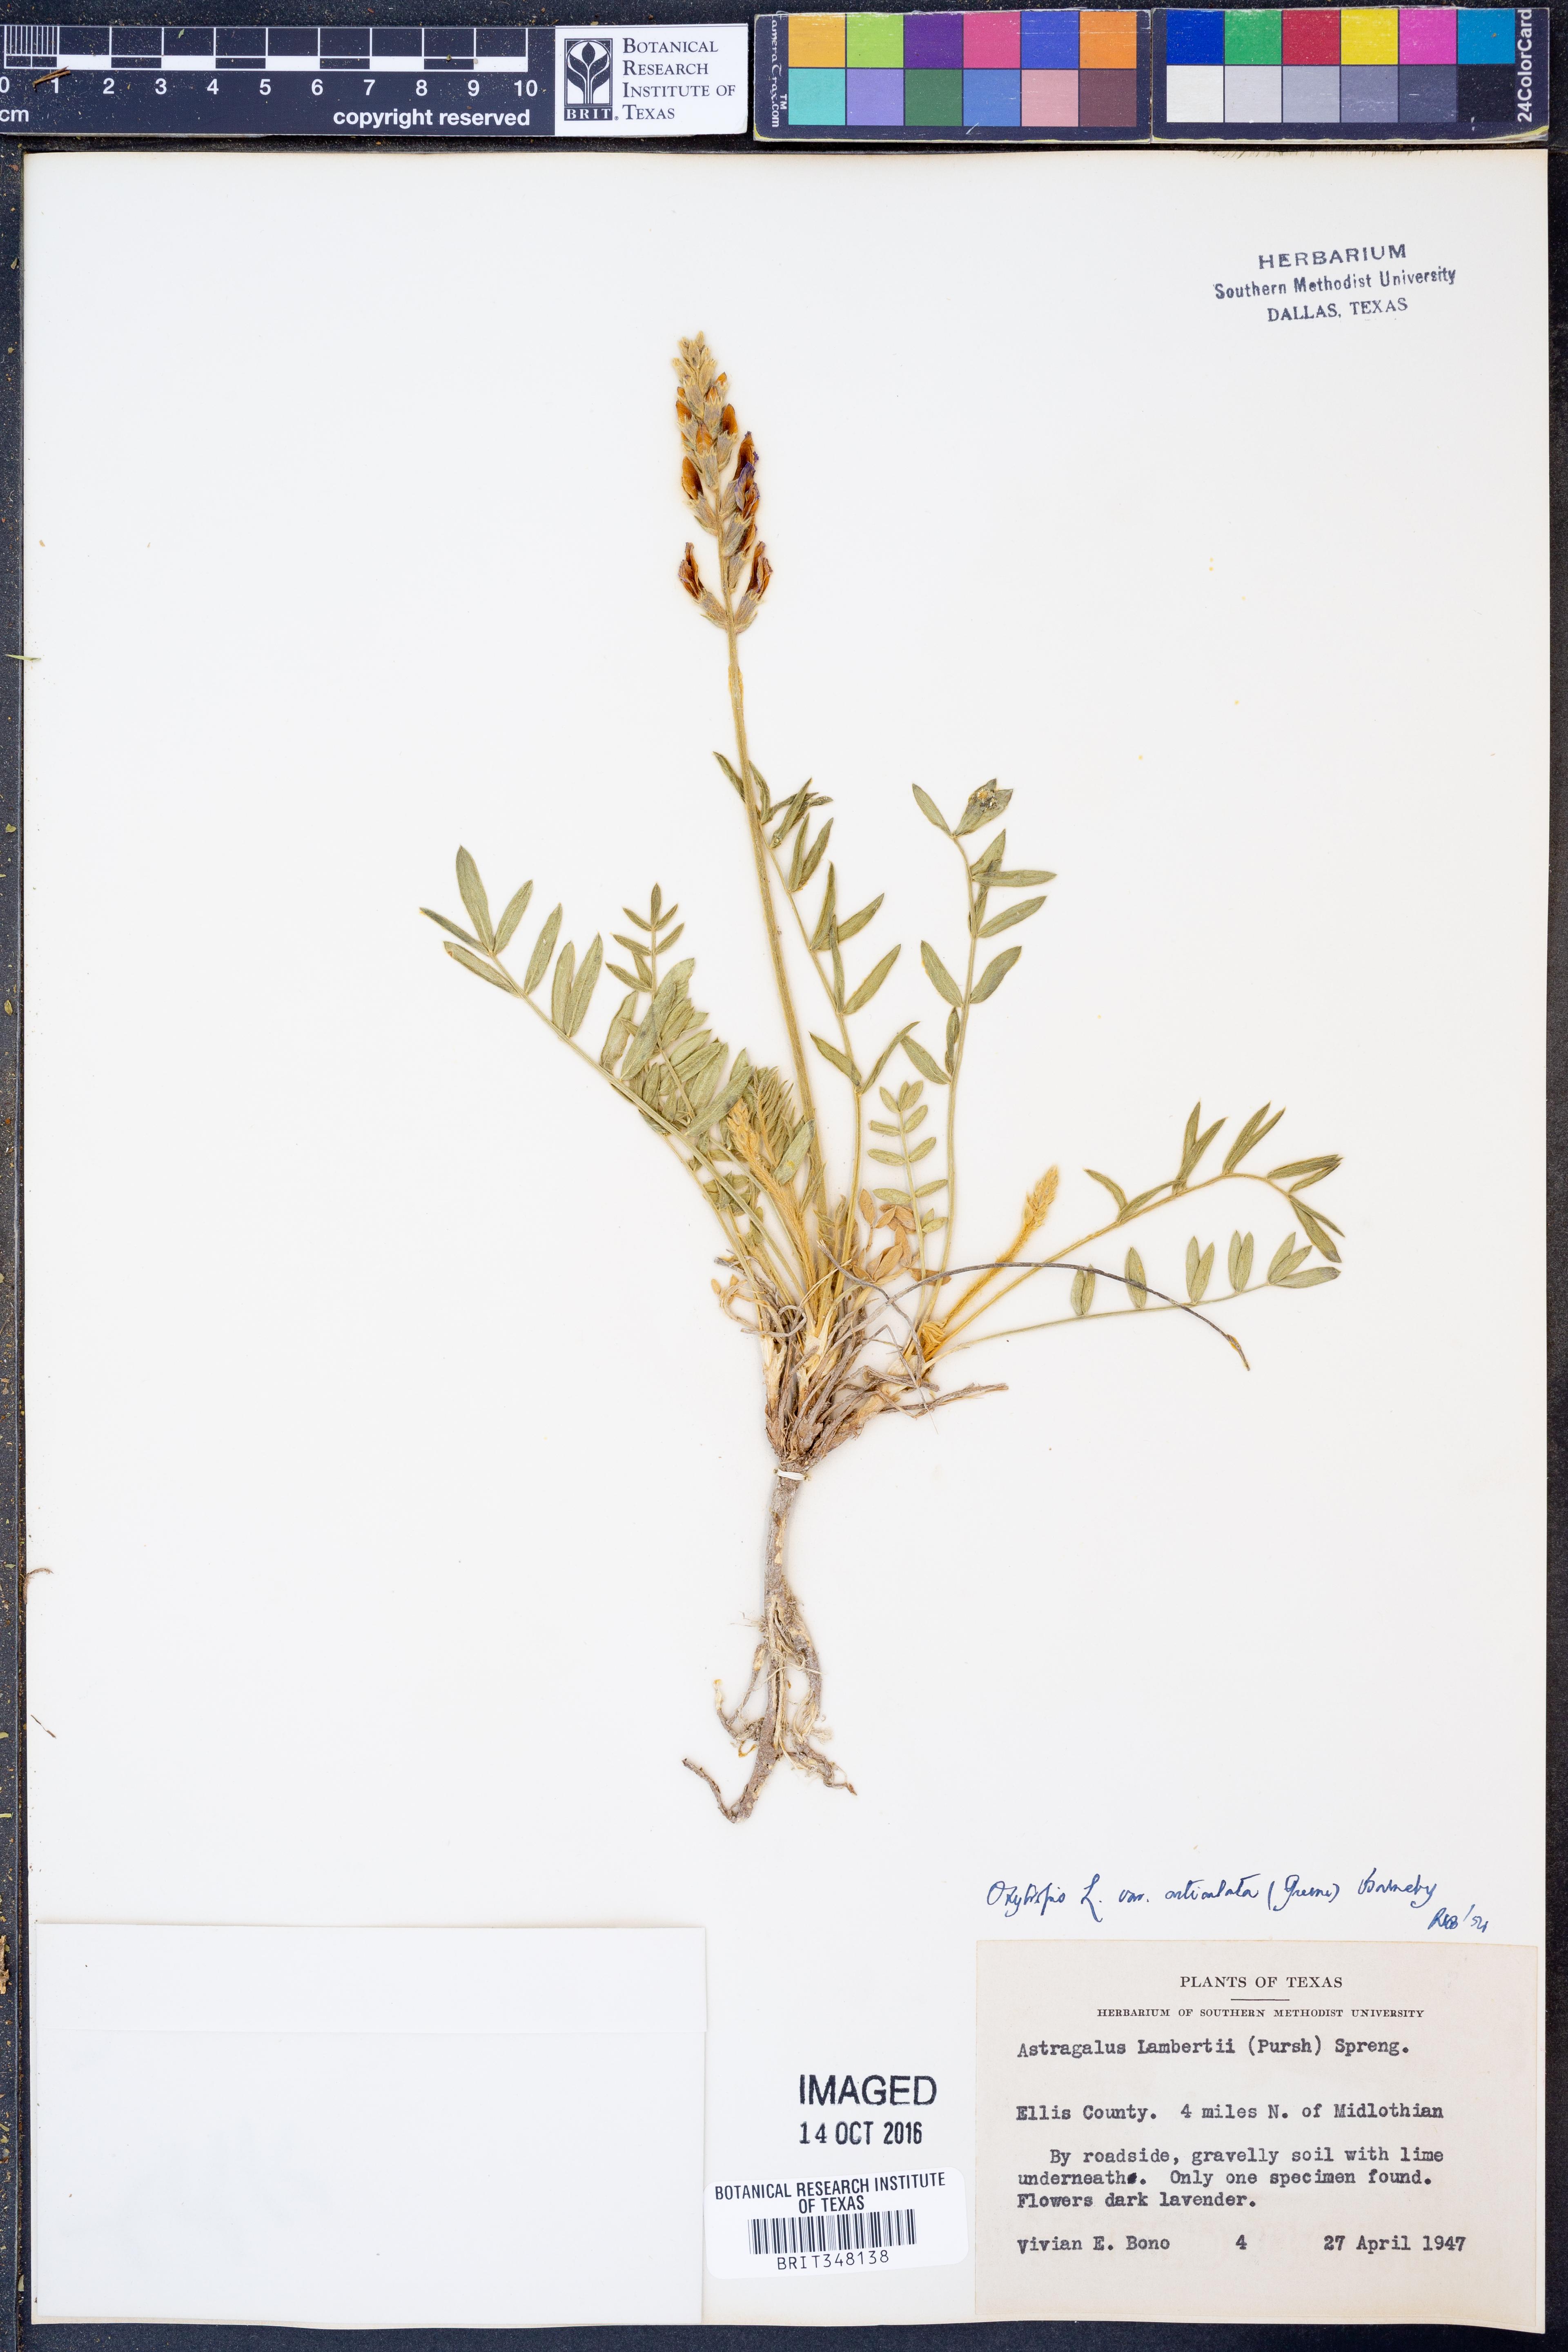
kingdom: Plantae
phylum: Tracheophyta
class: Magnoliopsida
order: Fabales
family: Fabaceae
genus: Oxytropis
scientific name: Oxytropis lambertii
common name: Purple locoweed
